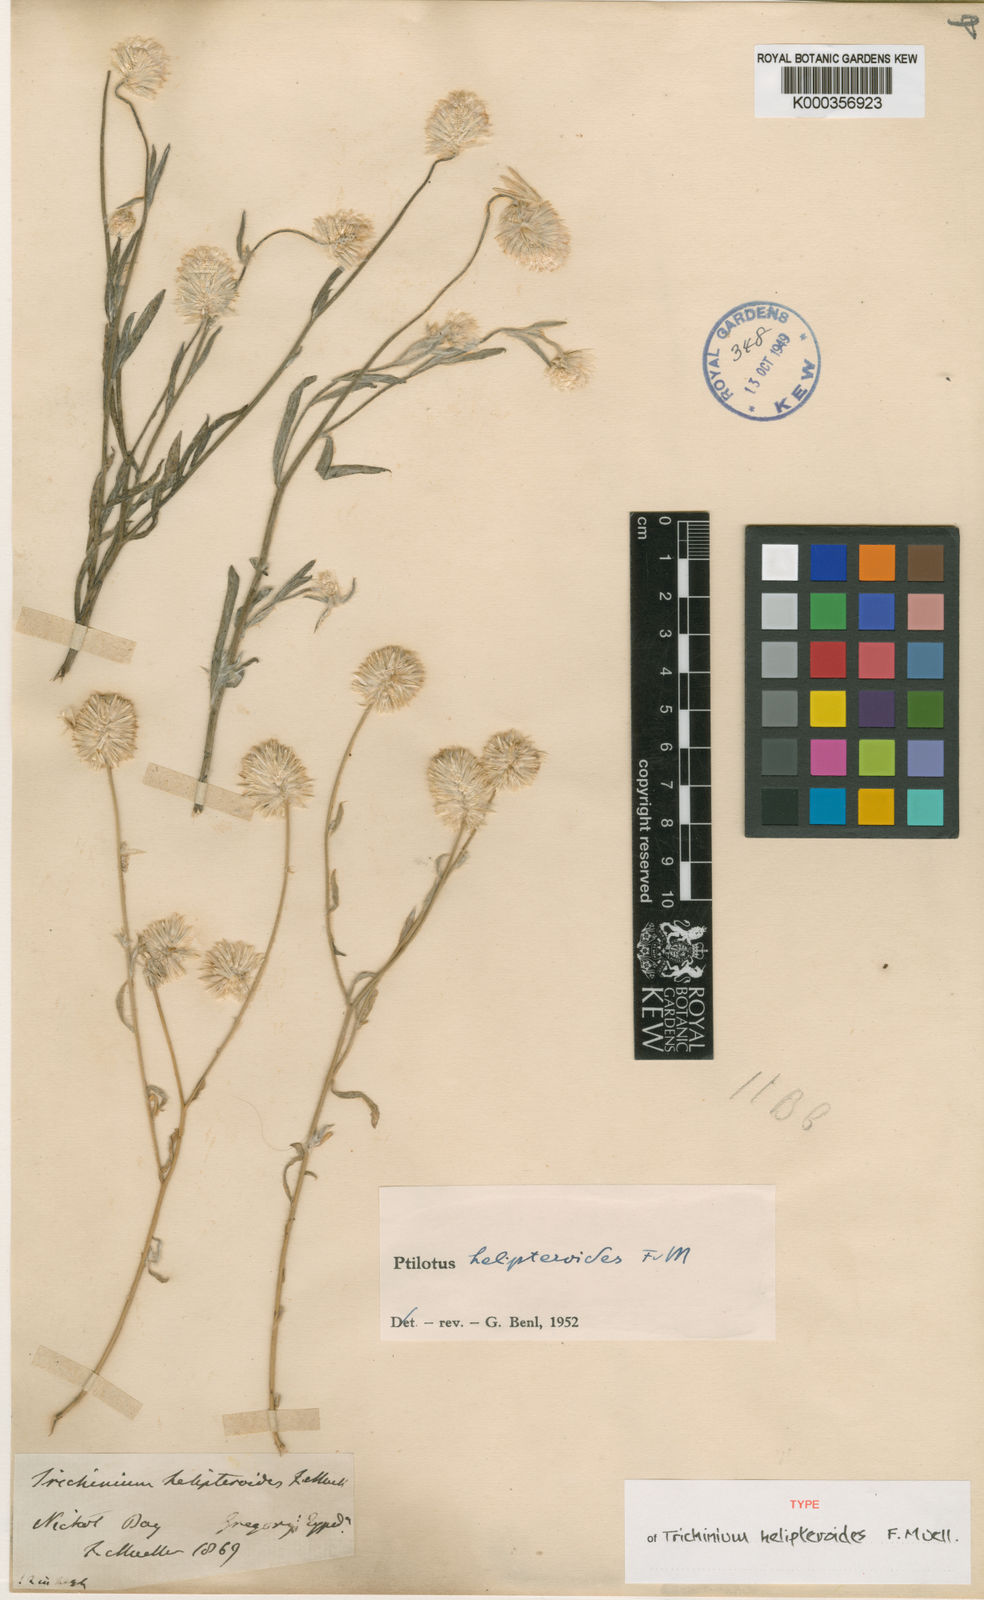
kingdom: Plantae
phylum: Tracheophyta
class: Magnoliopsida
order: Caryophyllales
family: Amaranthaceae
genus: Ptilotus
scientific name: Ptilotus helipteroides
